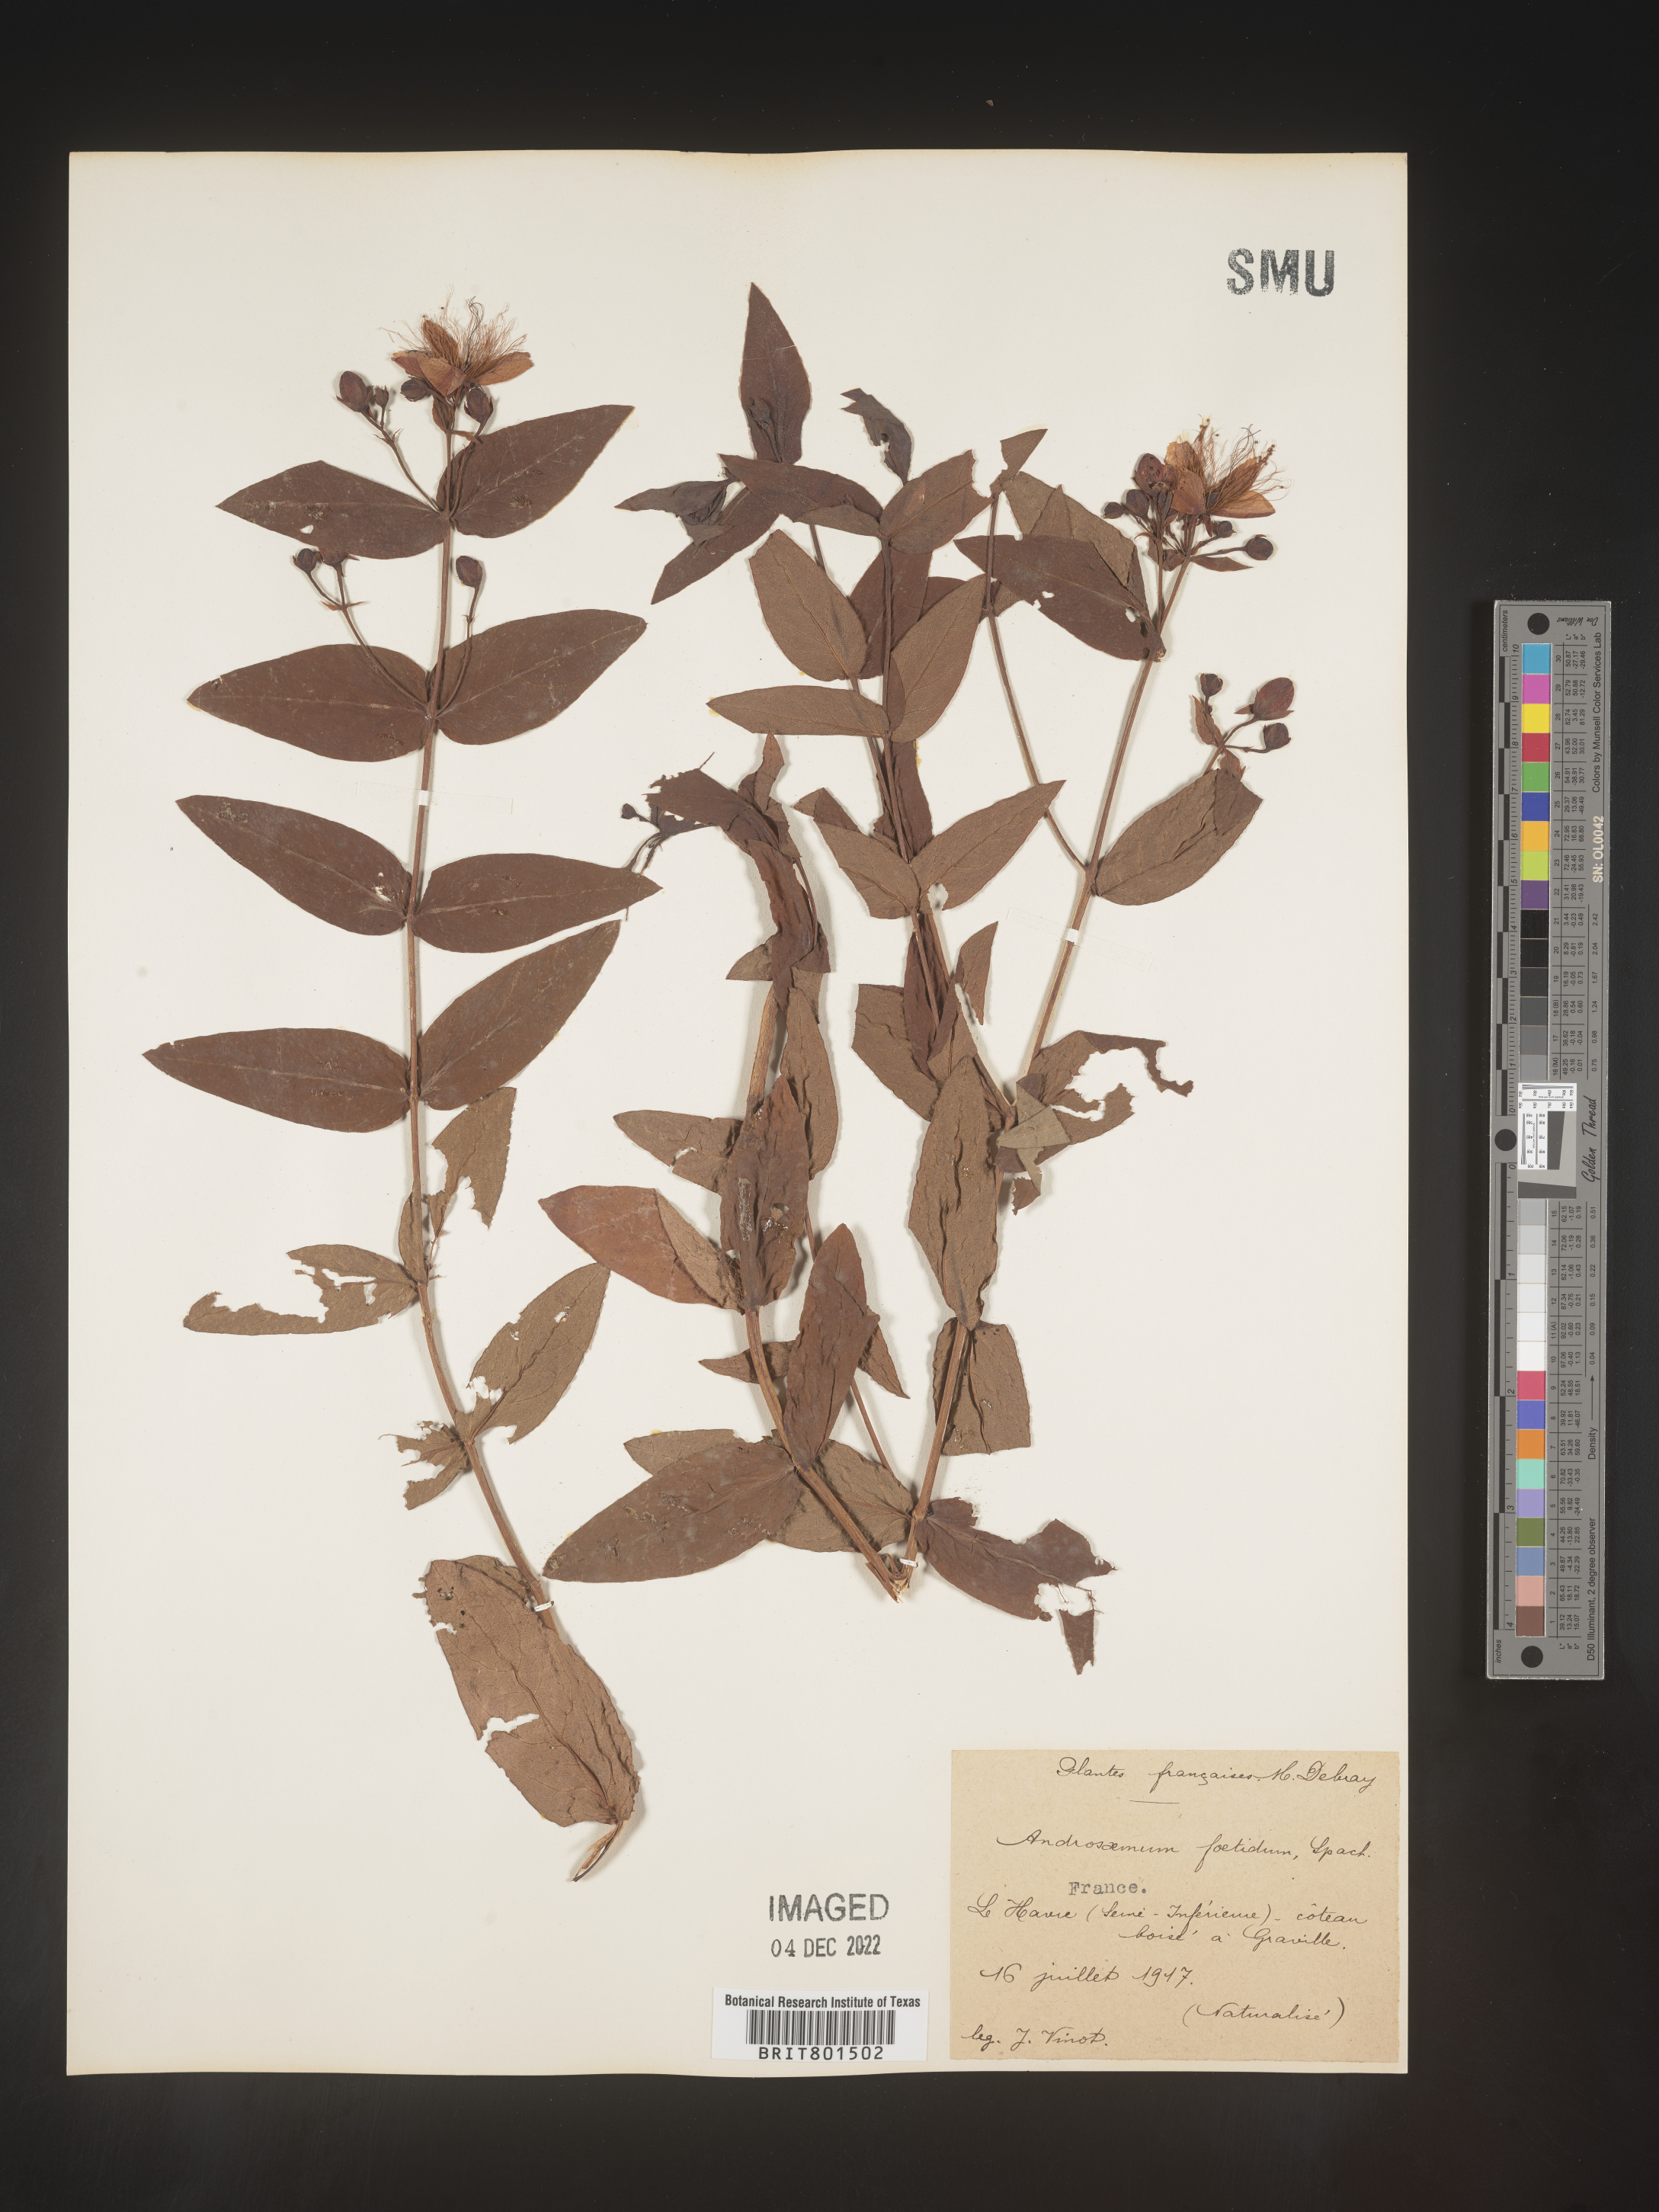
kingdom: Plantae
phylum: Tracheophyta
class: Magnoliopsida
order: Malpighiales
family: Hypericaceae
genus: Hypericum
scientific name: Hypericum
